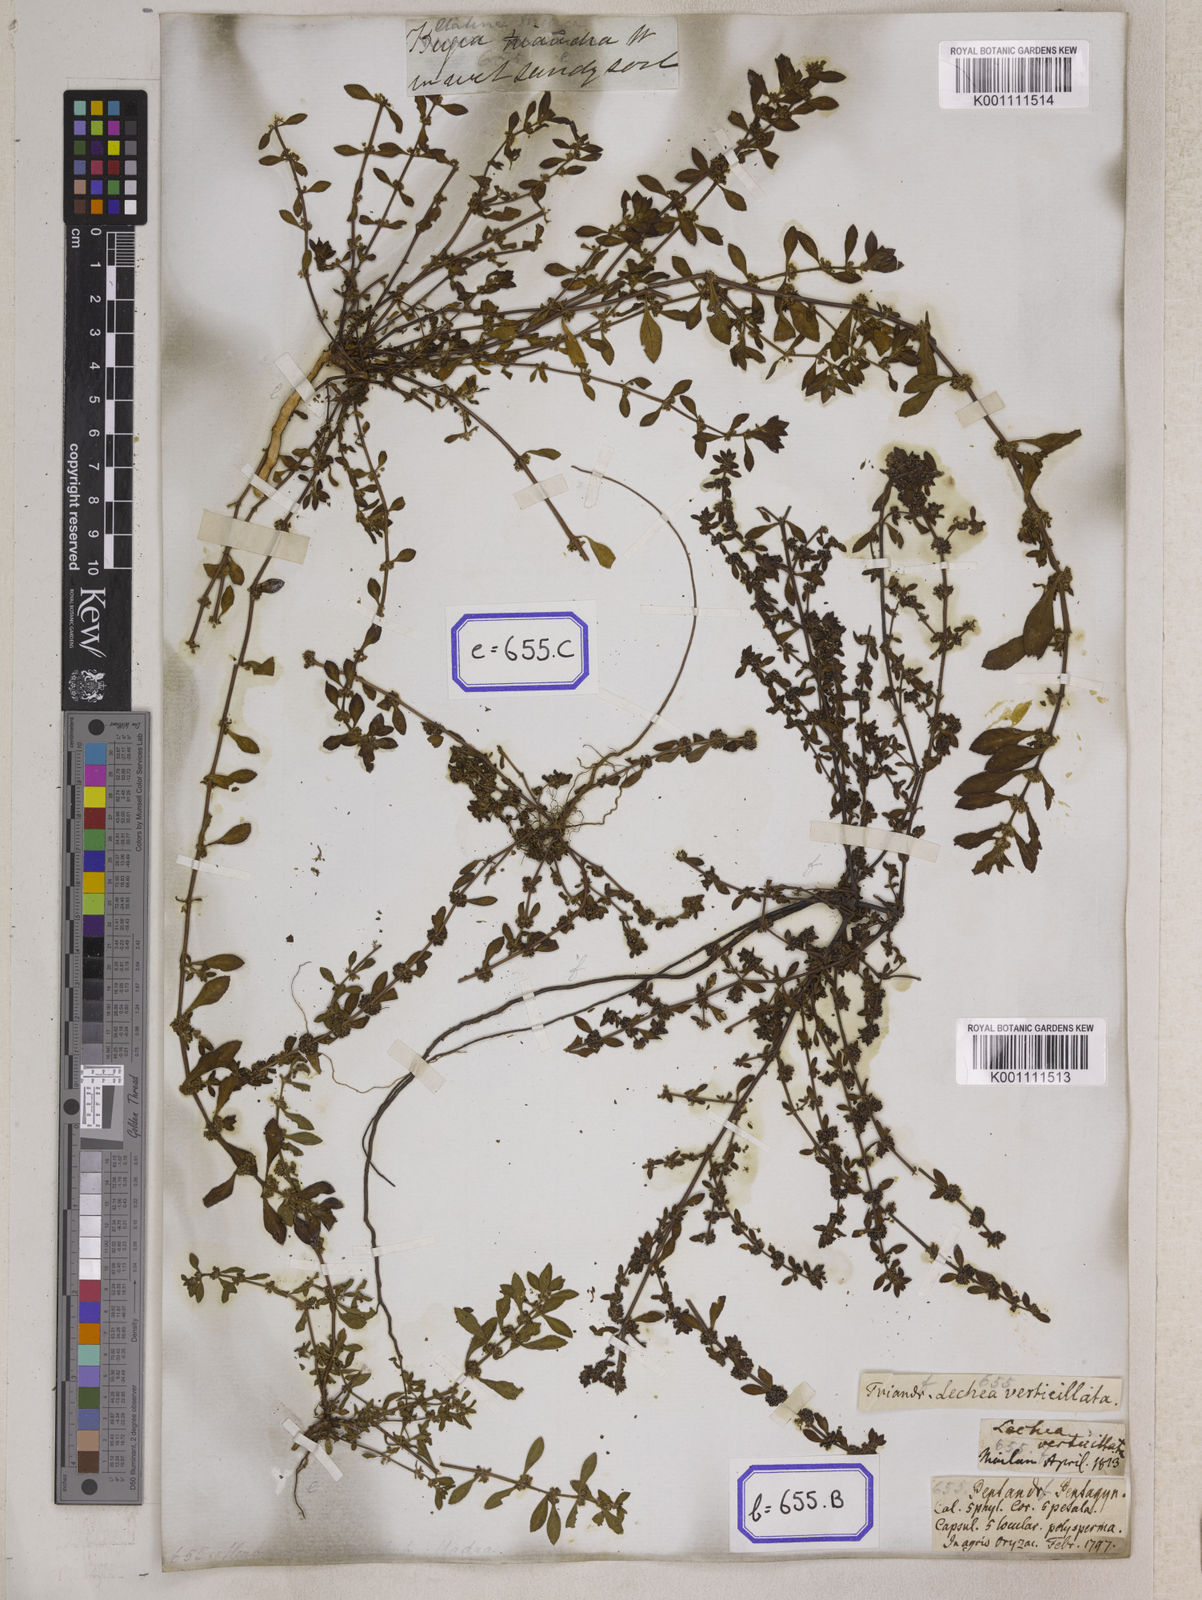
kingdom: Plantae
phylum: Tracheophyta
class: Magnoliopsida
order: Malpighiales
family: Elatinaceae
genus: Bergia
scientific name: Bergia ammannioides
